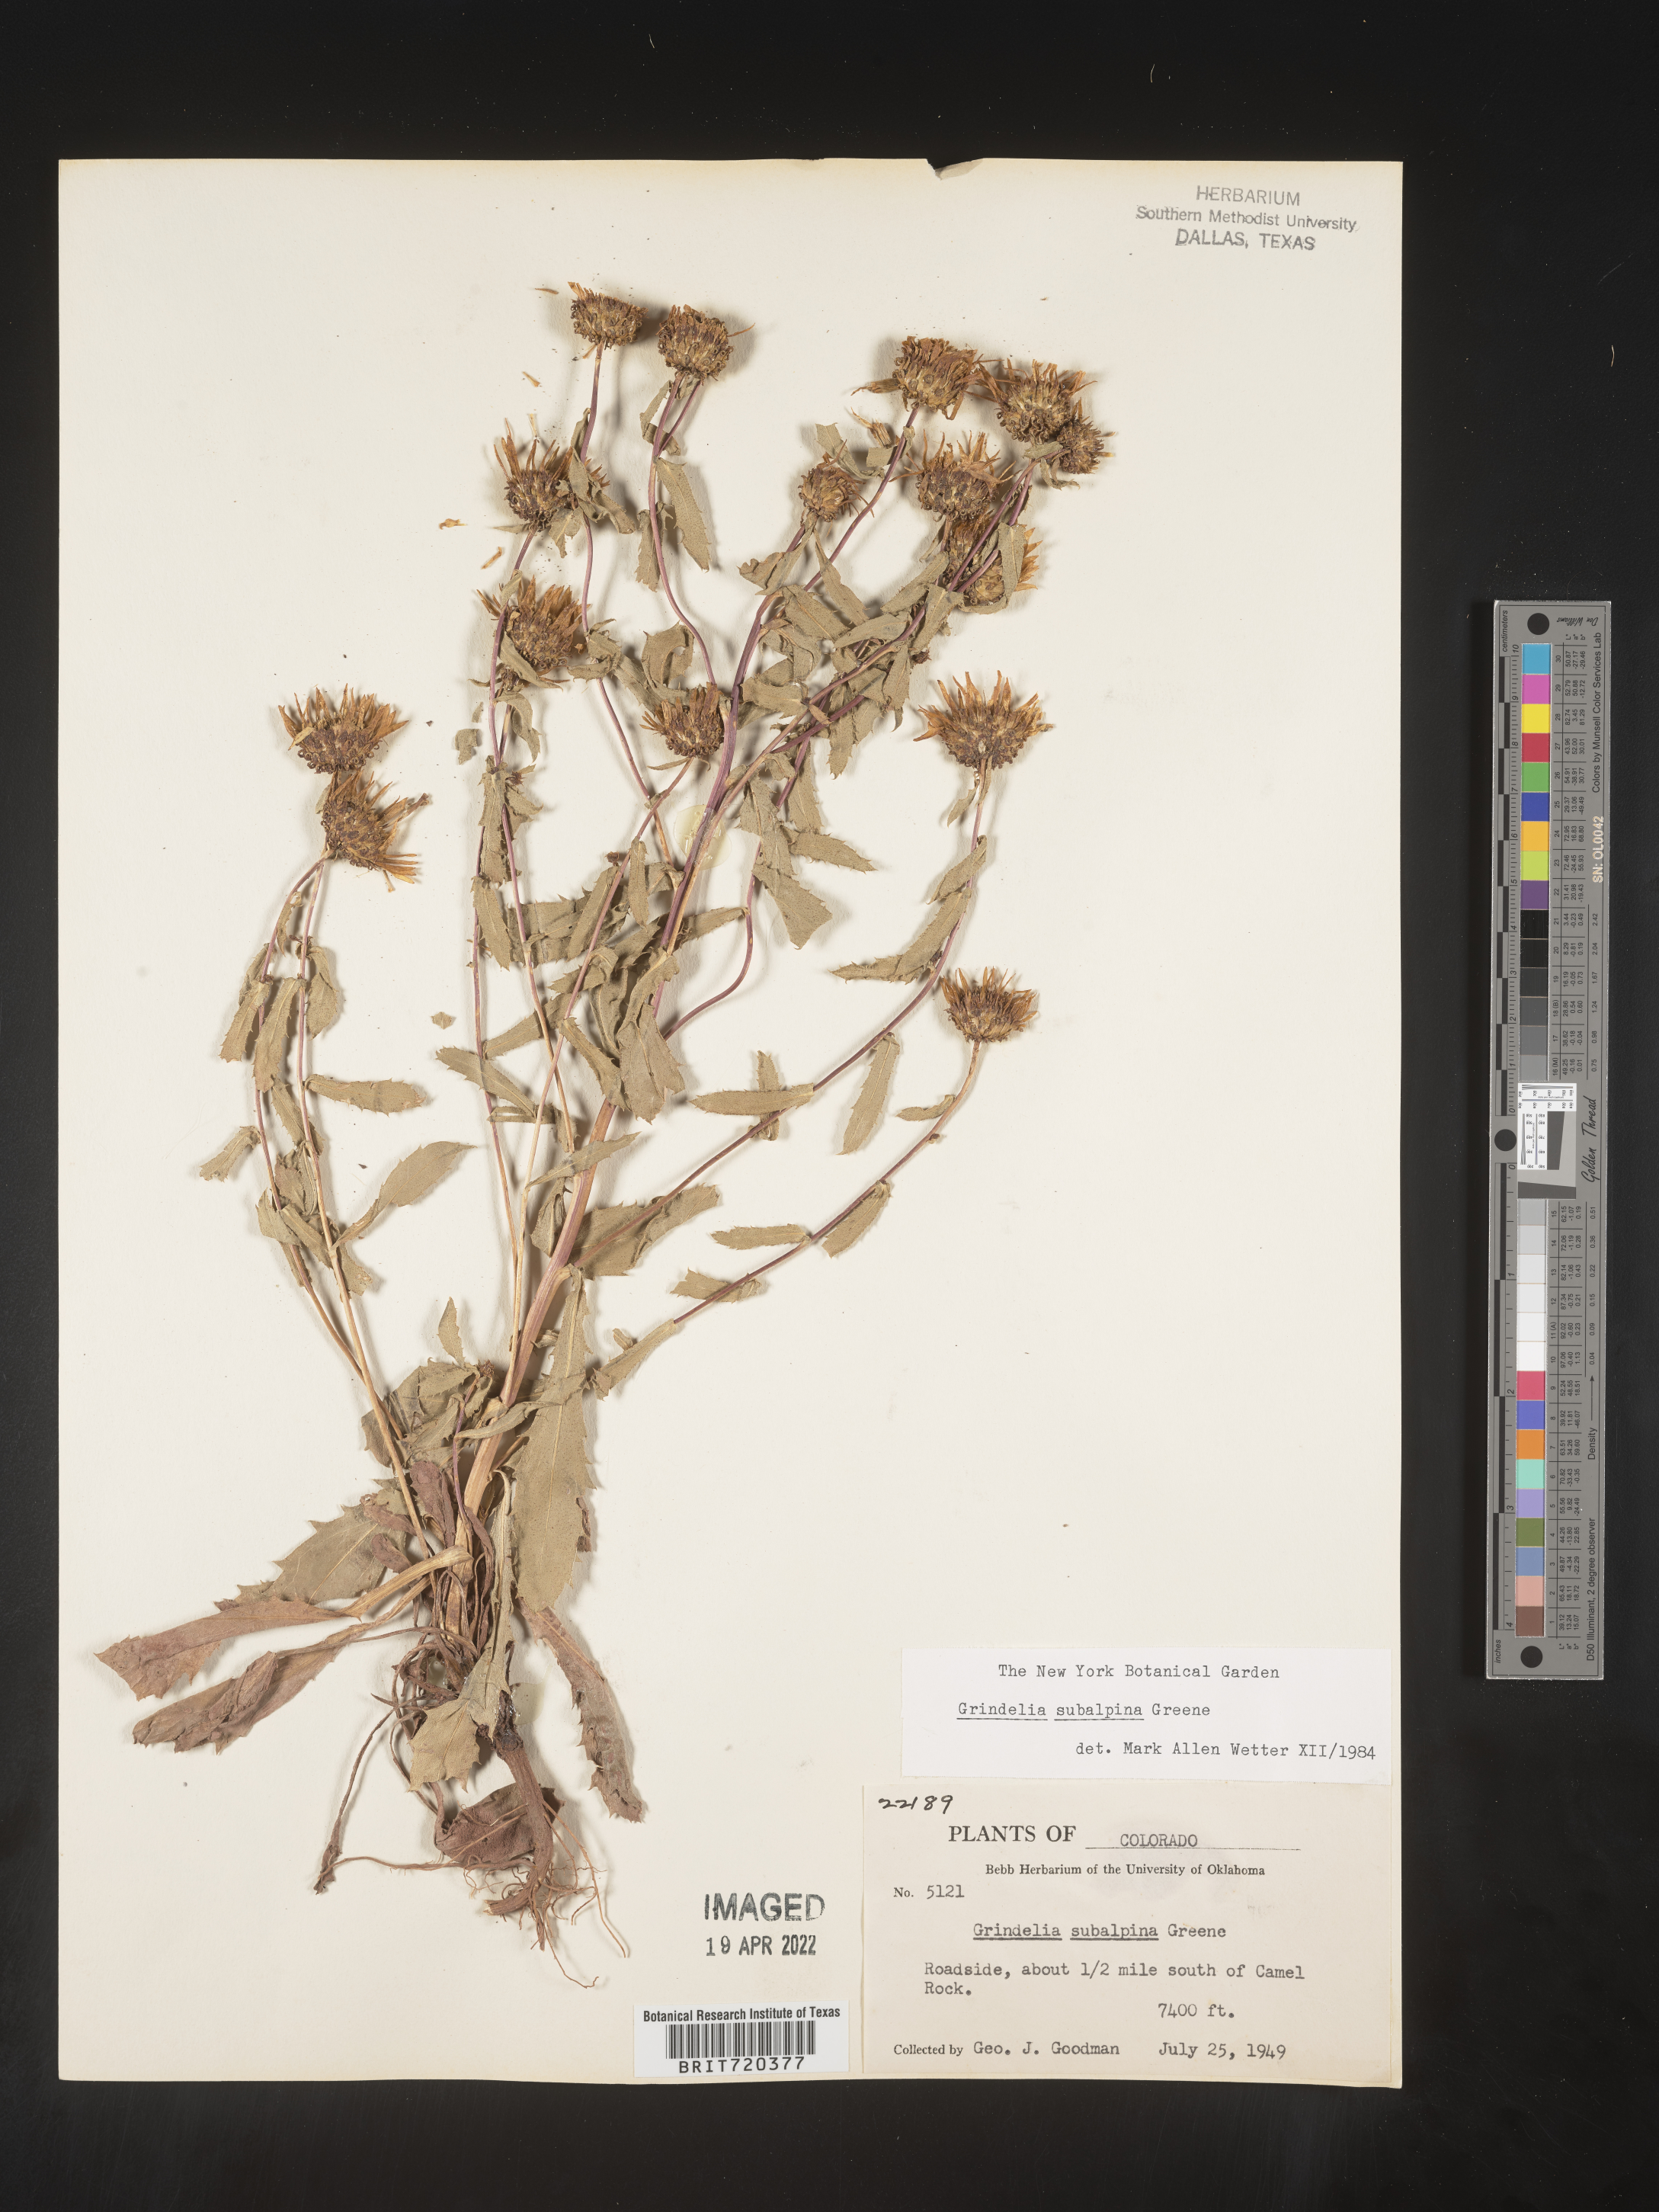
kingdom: Plantae
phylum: Tracheophyta
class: Magnoliopsida
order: Asterales
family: Asteraceae
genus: Grindelia
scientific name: Grindelia subalpina
